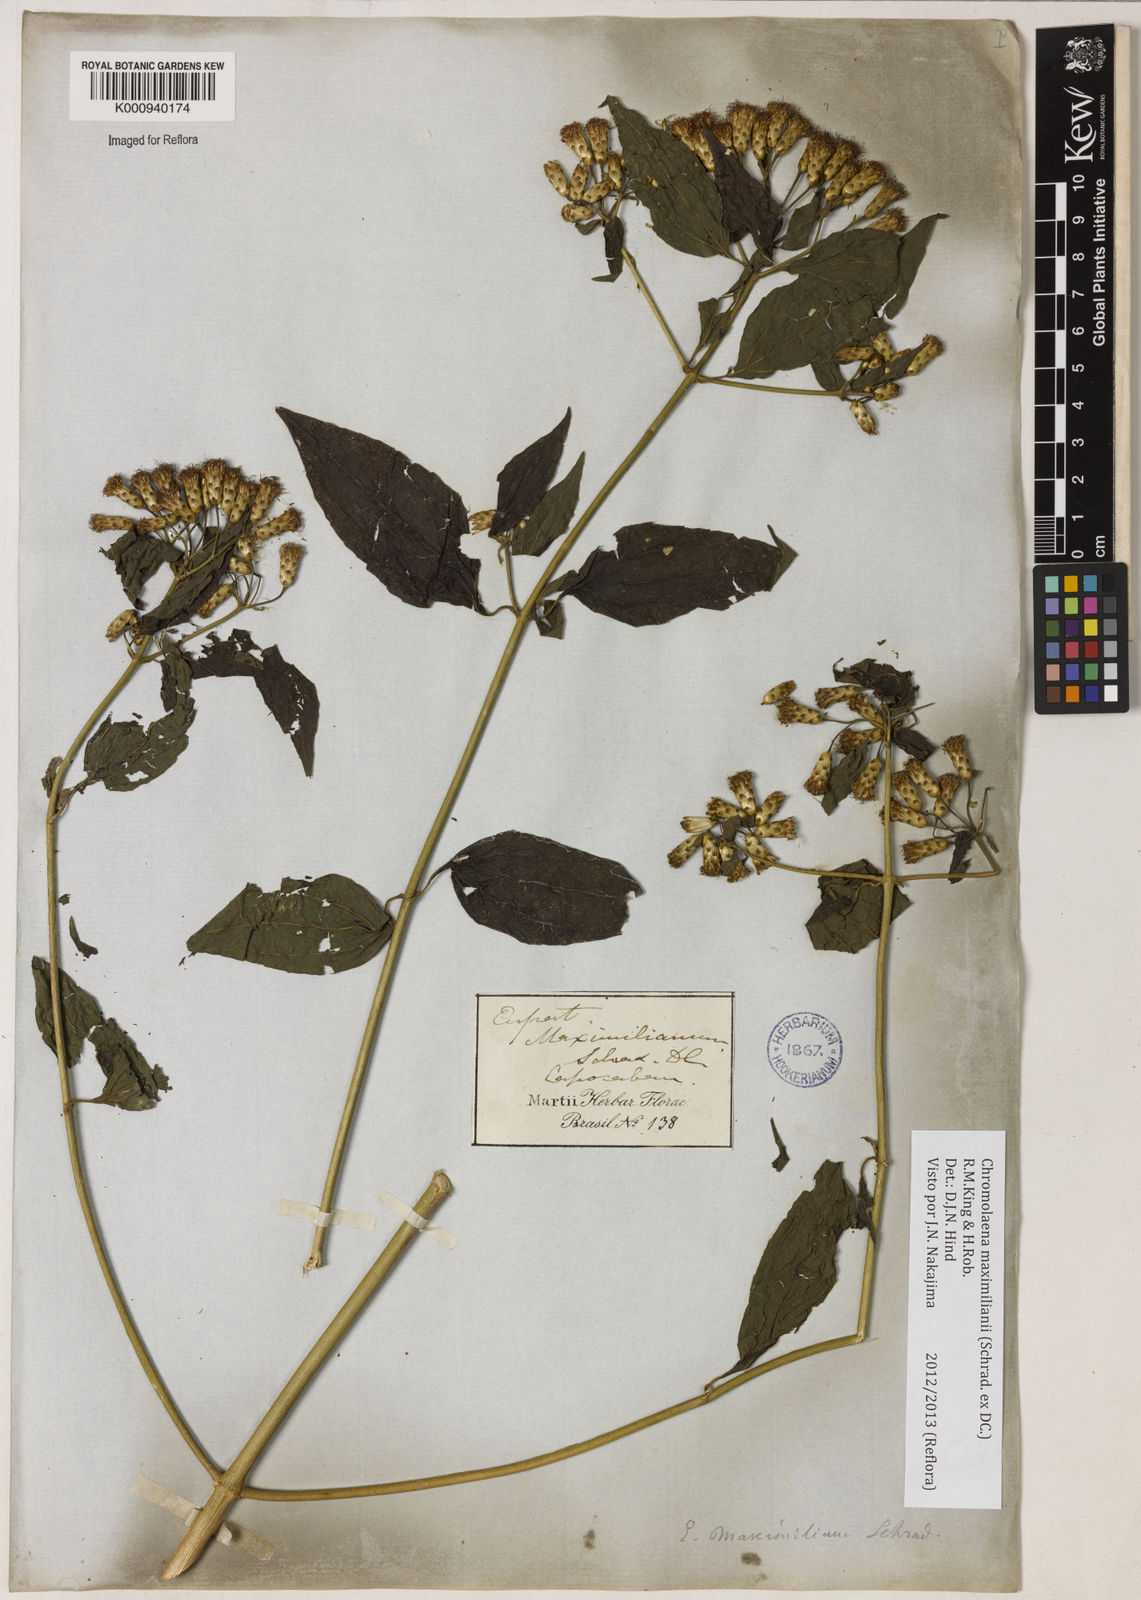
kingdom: Plantae
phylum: Tracheophyta
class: Magnoliopsida
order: Asterales
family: Asteraceae
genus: Chromolaena
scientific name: Chromolaena maximiliani
